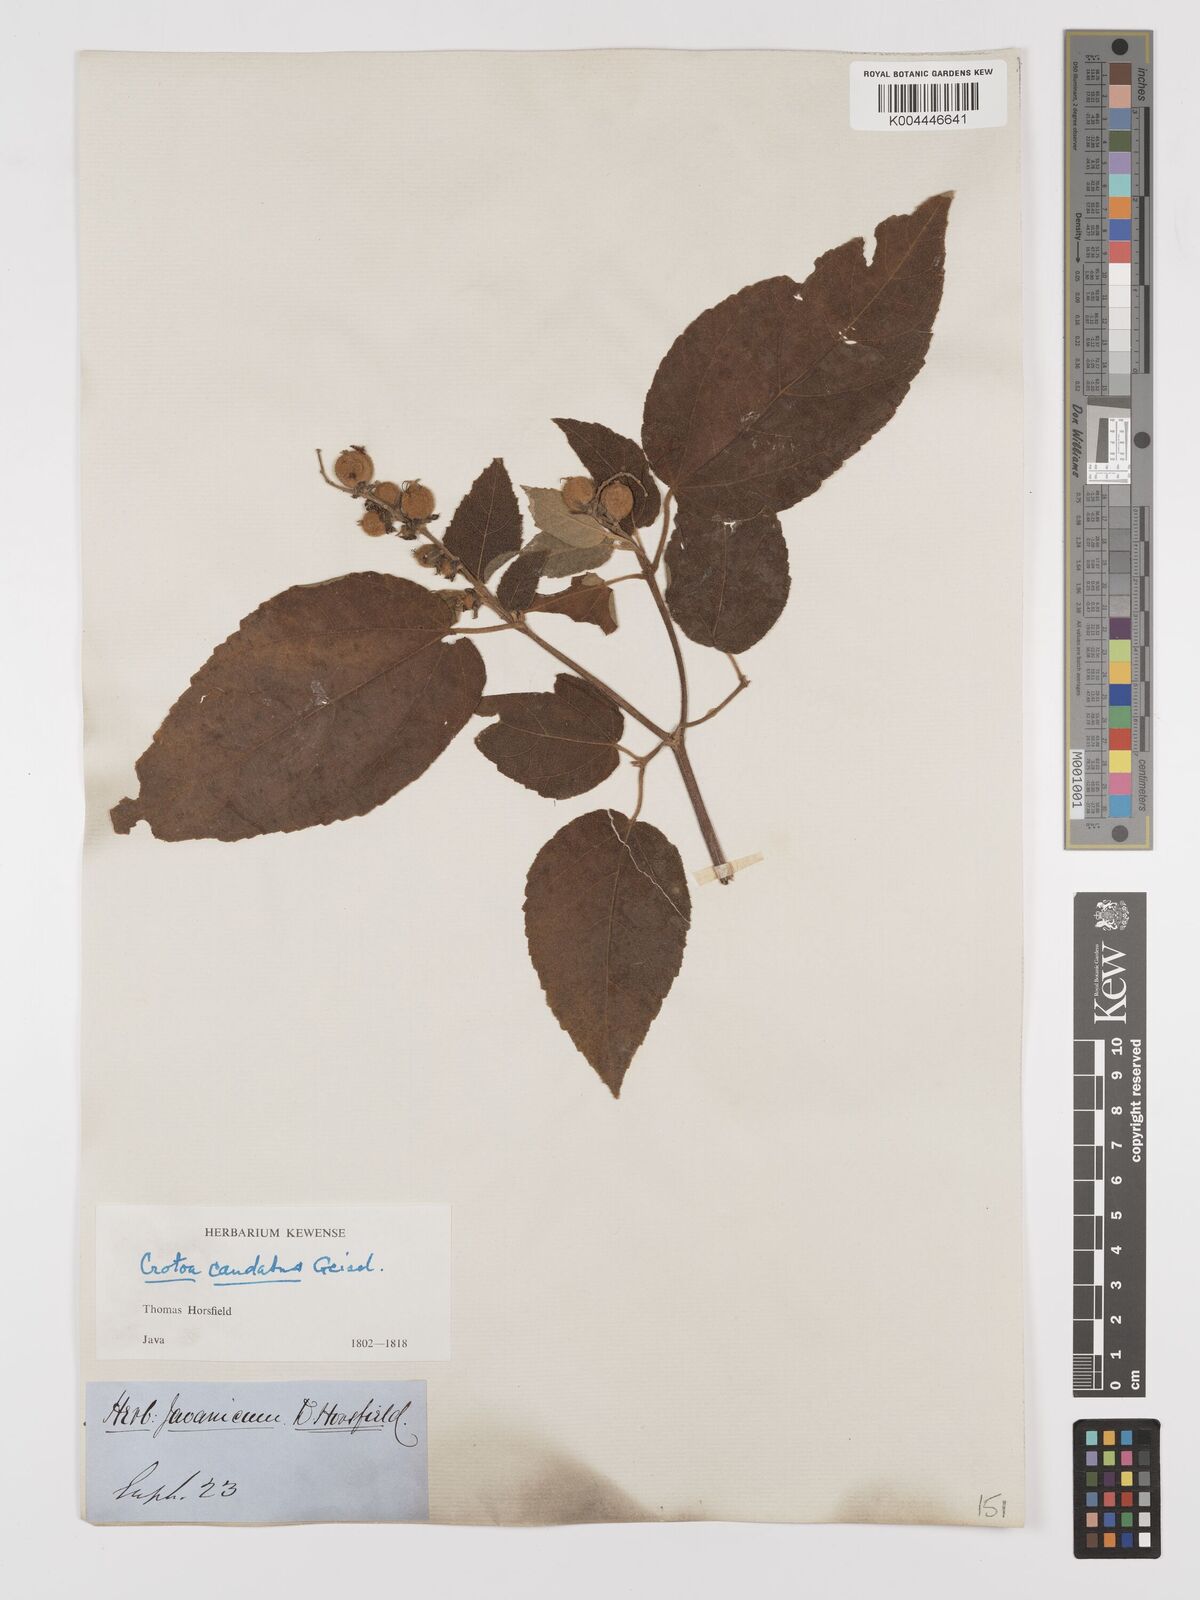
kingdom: Plantae
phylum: Tracheophyta
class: Magnoliopsida
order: Malpighiales
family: Euphorbiaceae
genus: Croton
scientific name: Croton caudatus
